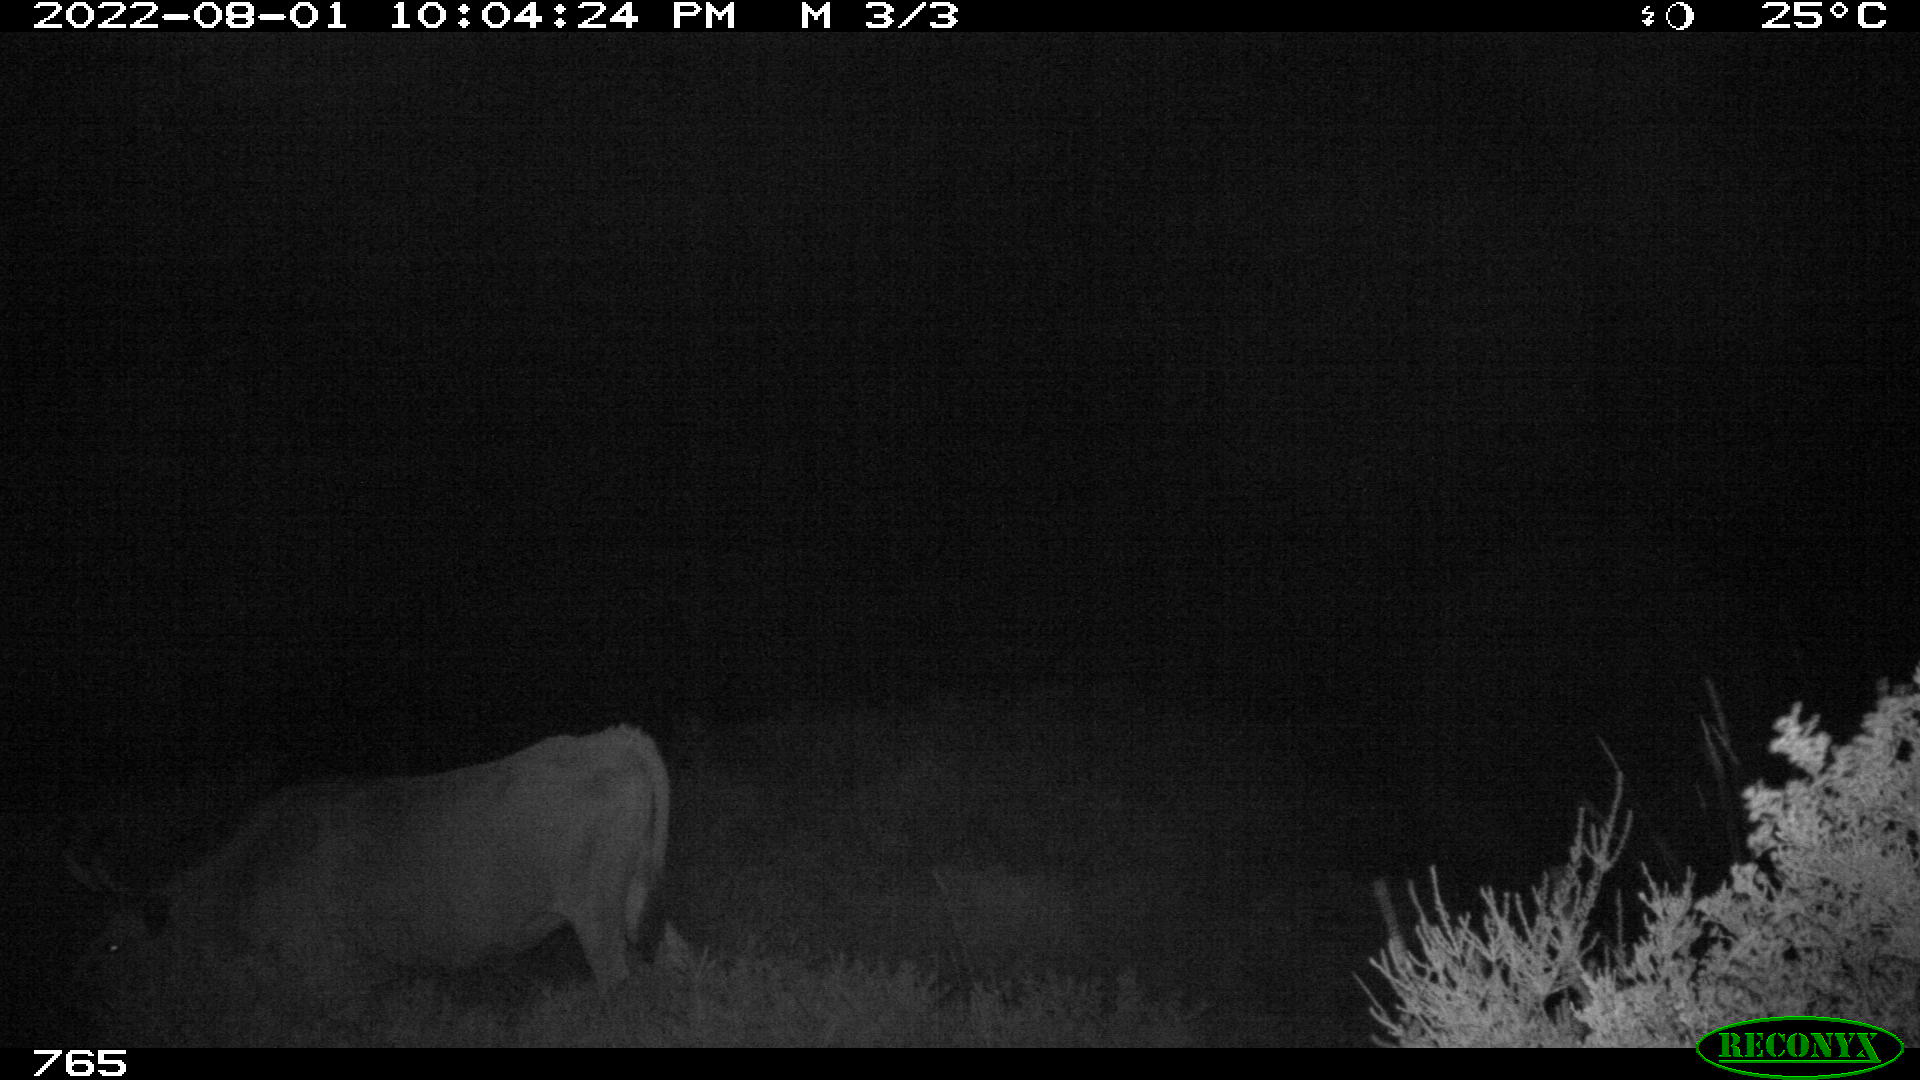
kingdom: Animalia
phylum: Chordata
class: Mammalia
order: Artiodactyla
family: Bovidae
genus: Bos
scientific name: Bos taurus
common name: Domesticated cattle
